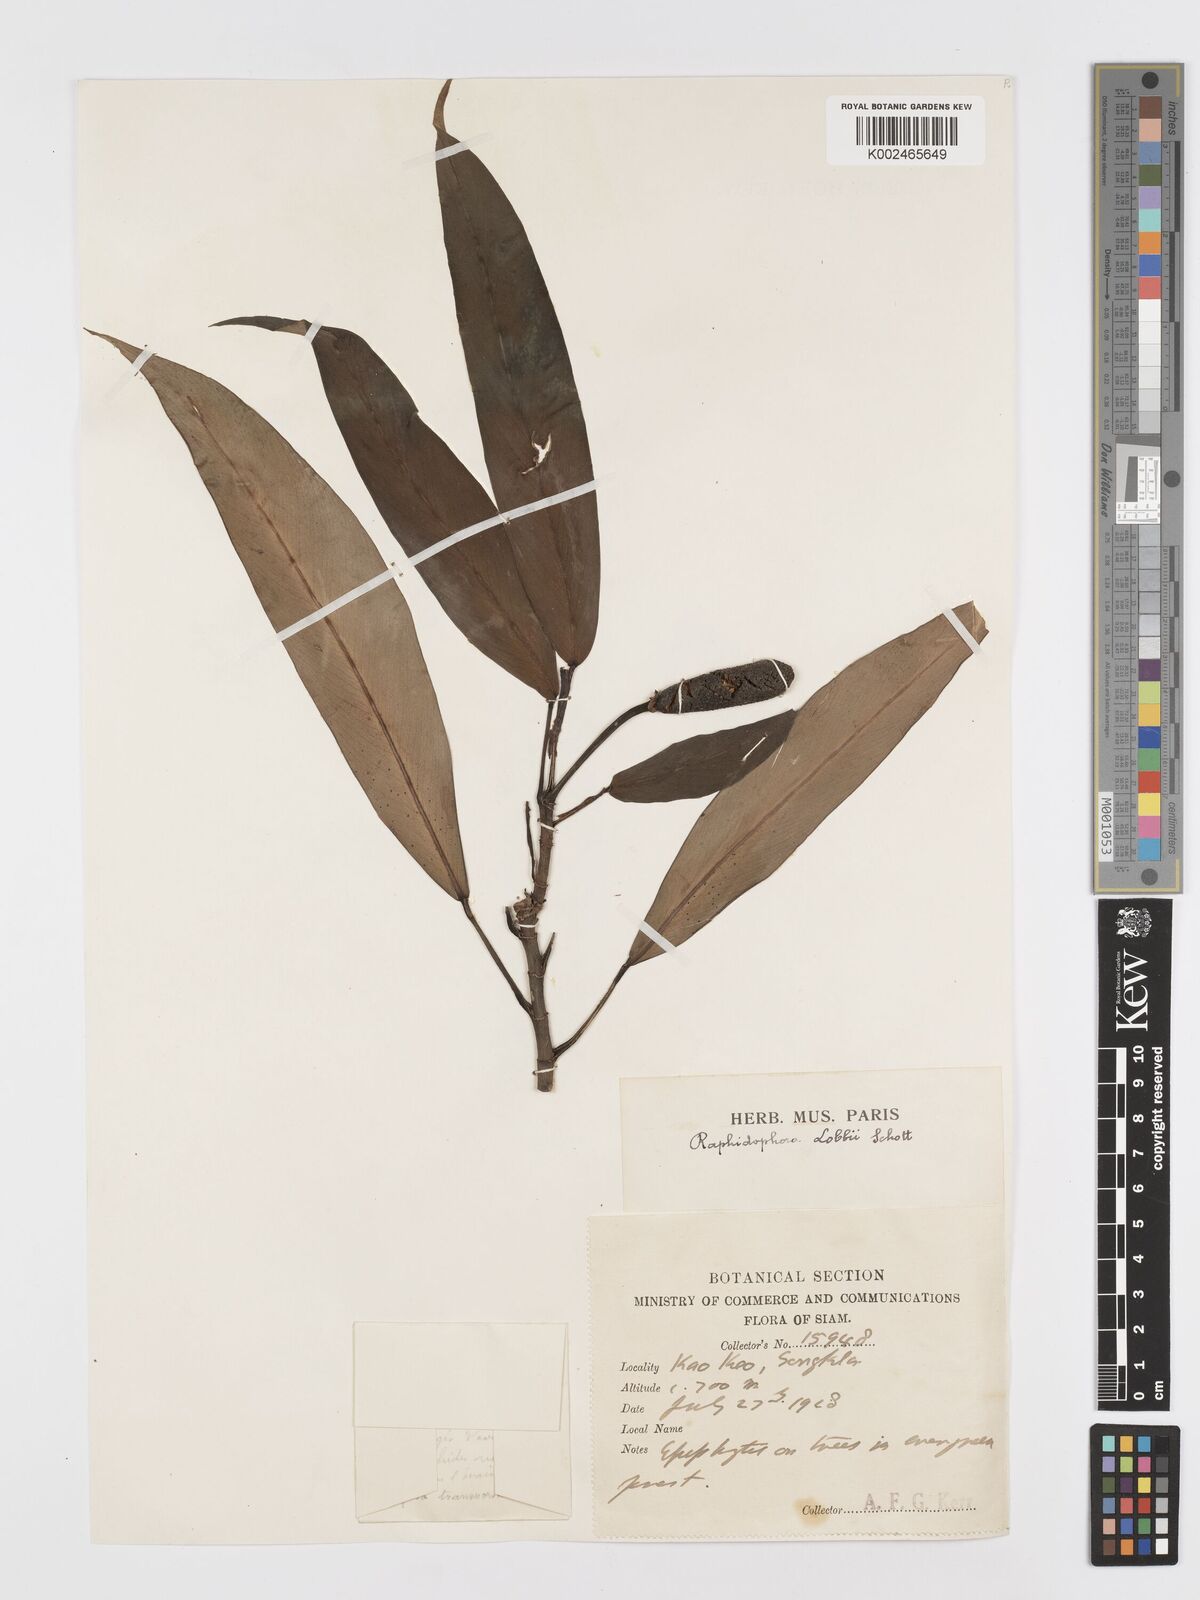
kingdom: Plantae
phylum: Tracheophyta
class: Liliopsida
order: Alismatales
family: Araceae
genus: Rhaphidophora
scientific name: Rhaphidophora sylvestris
